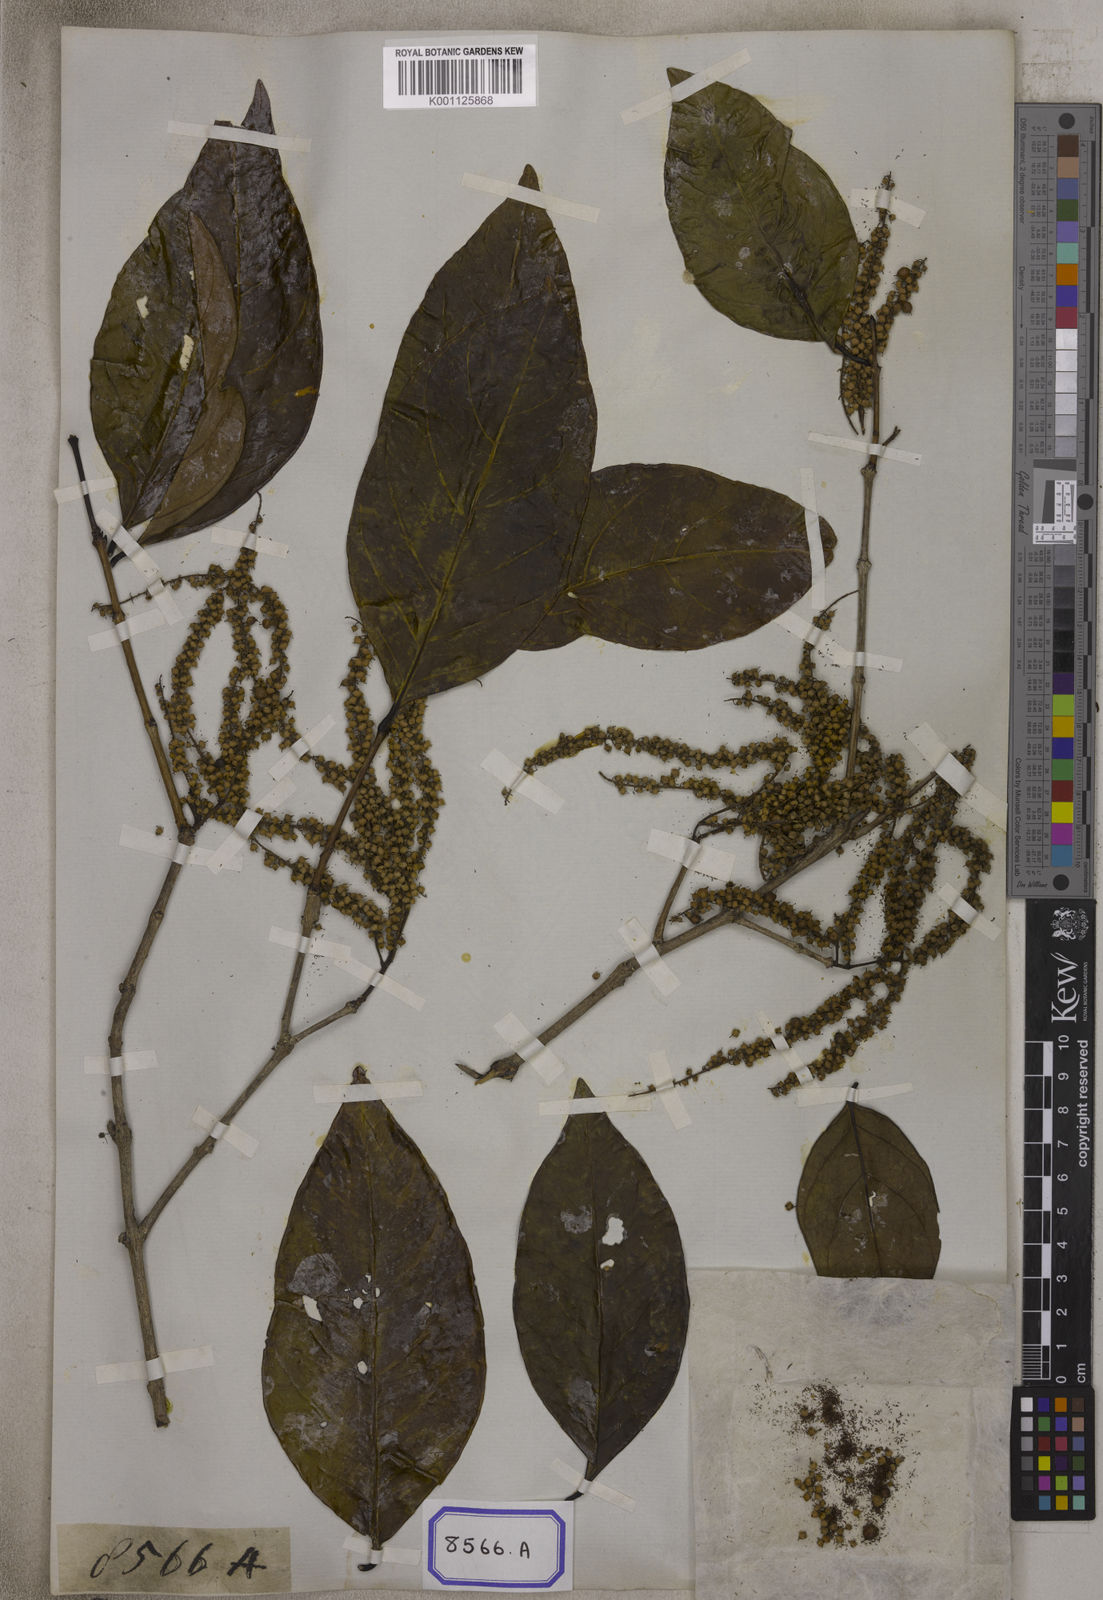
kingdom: Plantae
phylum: Tracheophyta
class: Magnoliopsida
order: Myrtales
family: Crypteroniaceae
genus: Crypteronia
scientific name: Crypteronia paniculata
